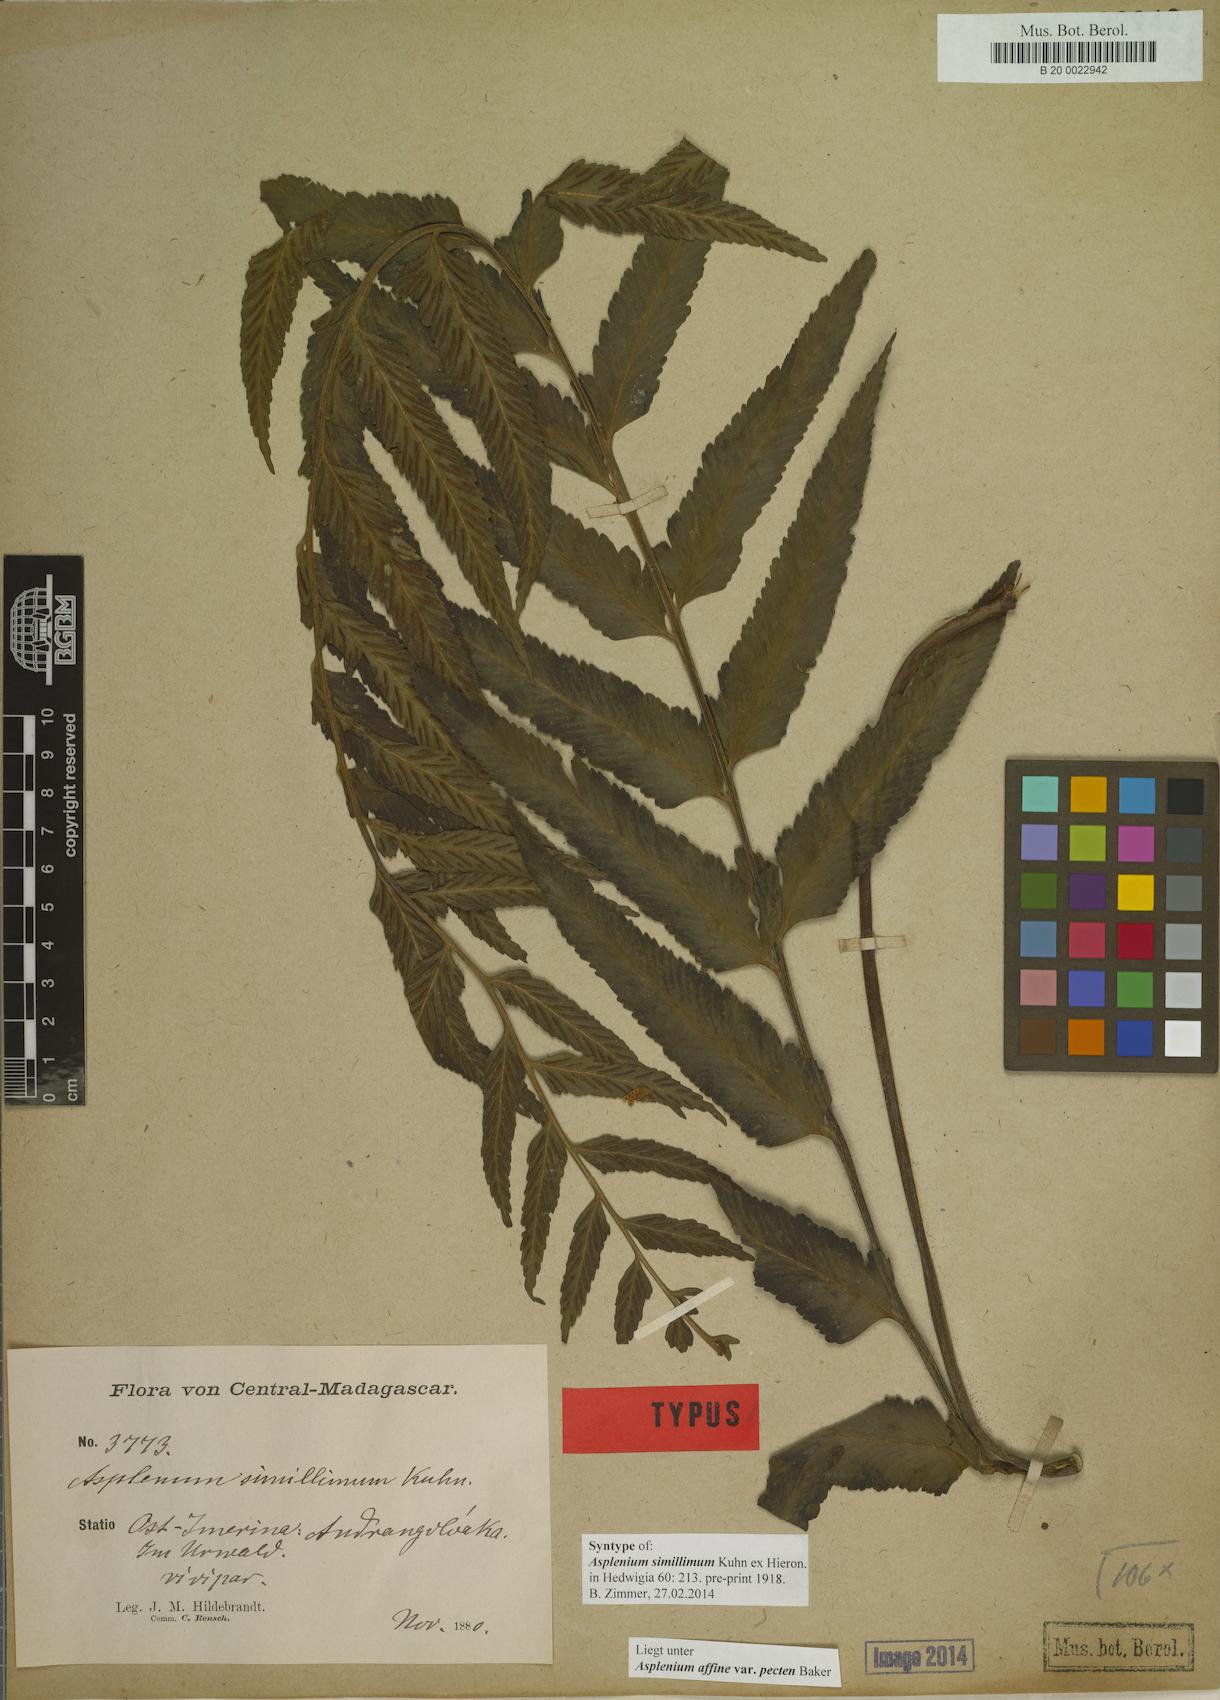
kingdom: Plantae
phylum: Tracheophyta
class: Polypodiopsida
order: Polypodiales
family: Aspleniaceae
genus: Asplenium
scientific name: Asplenium herpetopteris
